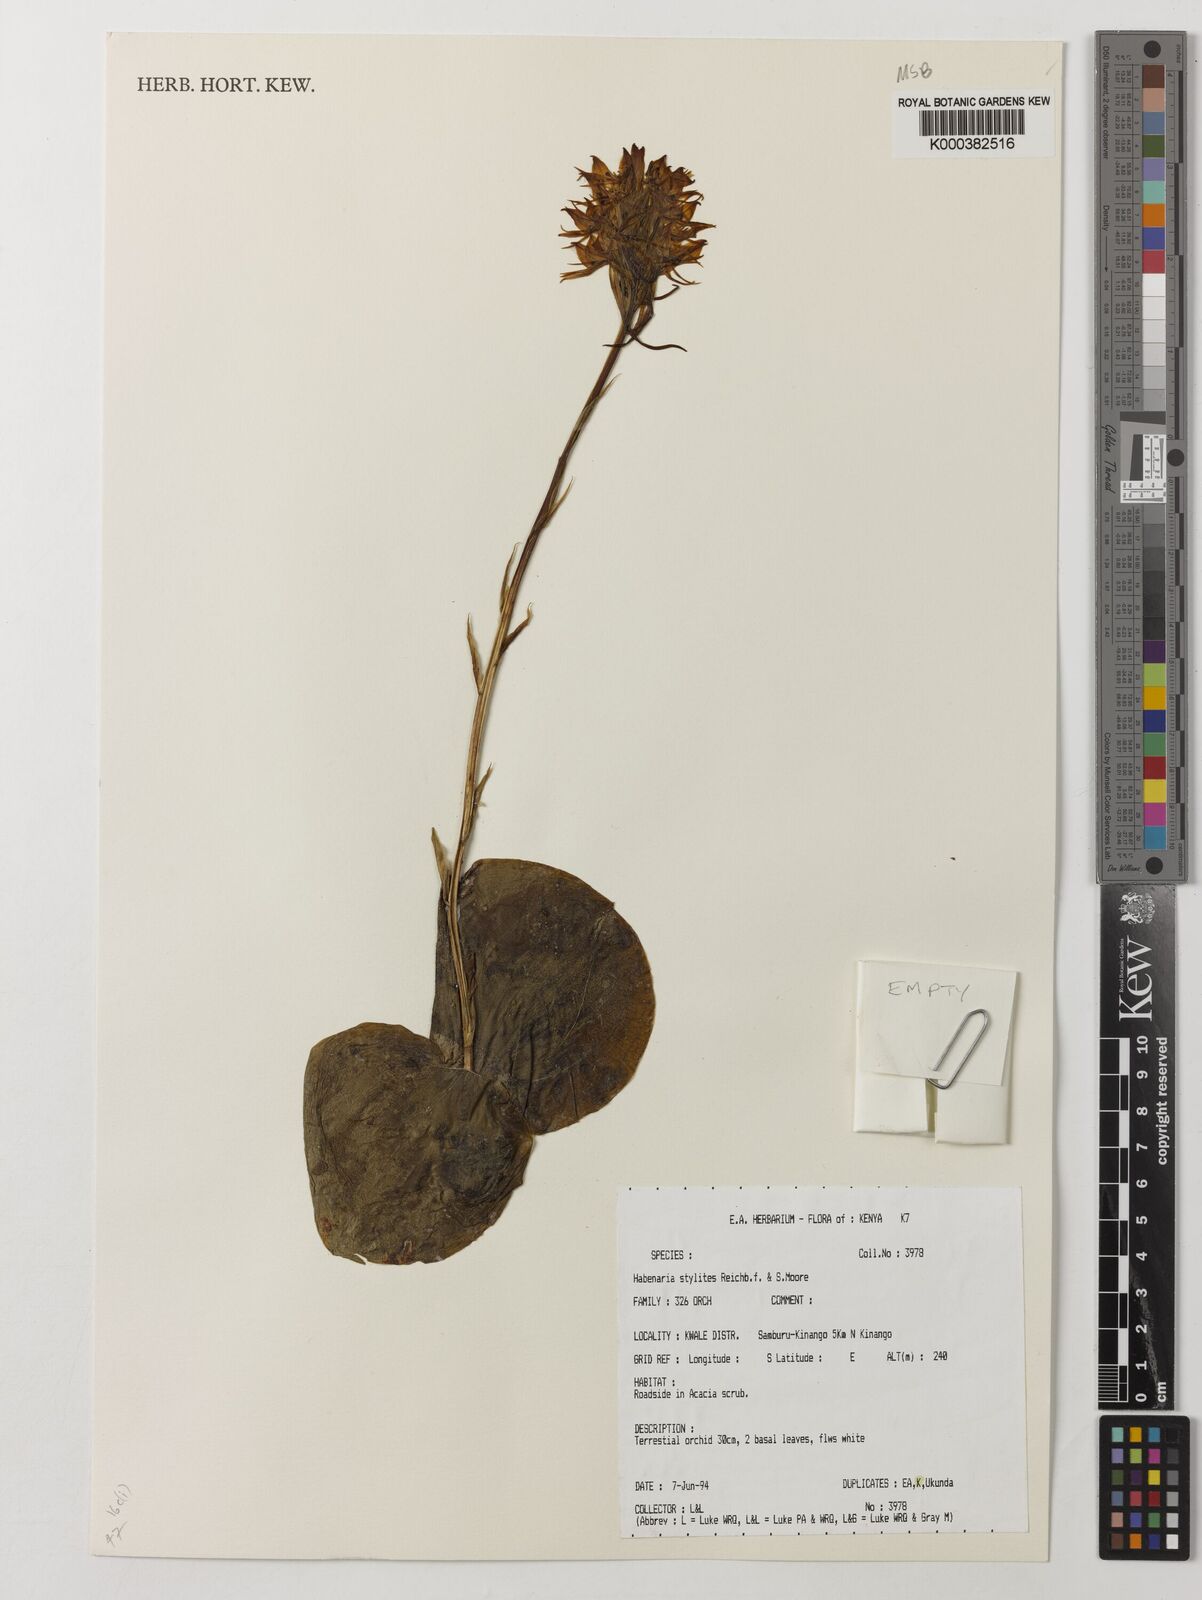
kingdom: Plantae
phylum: Tracheophyta
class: Liliopsida
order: Asparagales
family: Orchidaceae
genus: Habenaria
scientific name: Habenaria stylites
